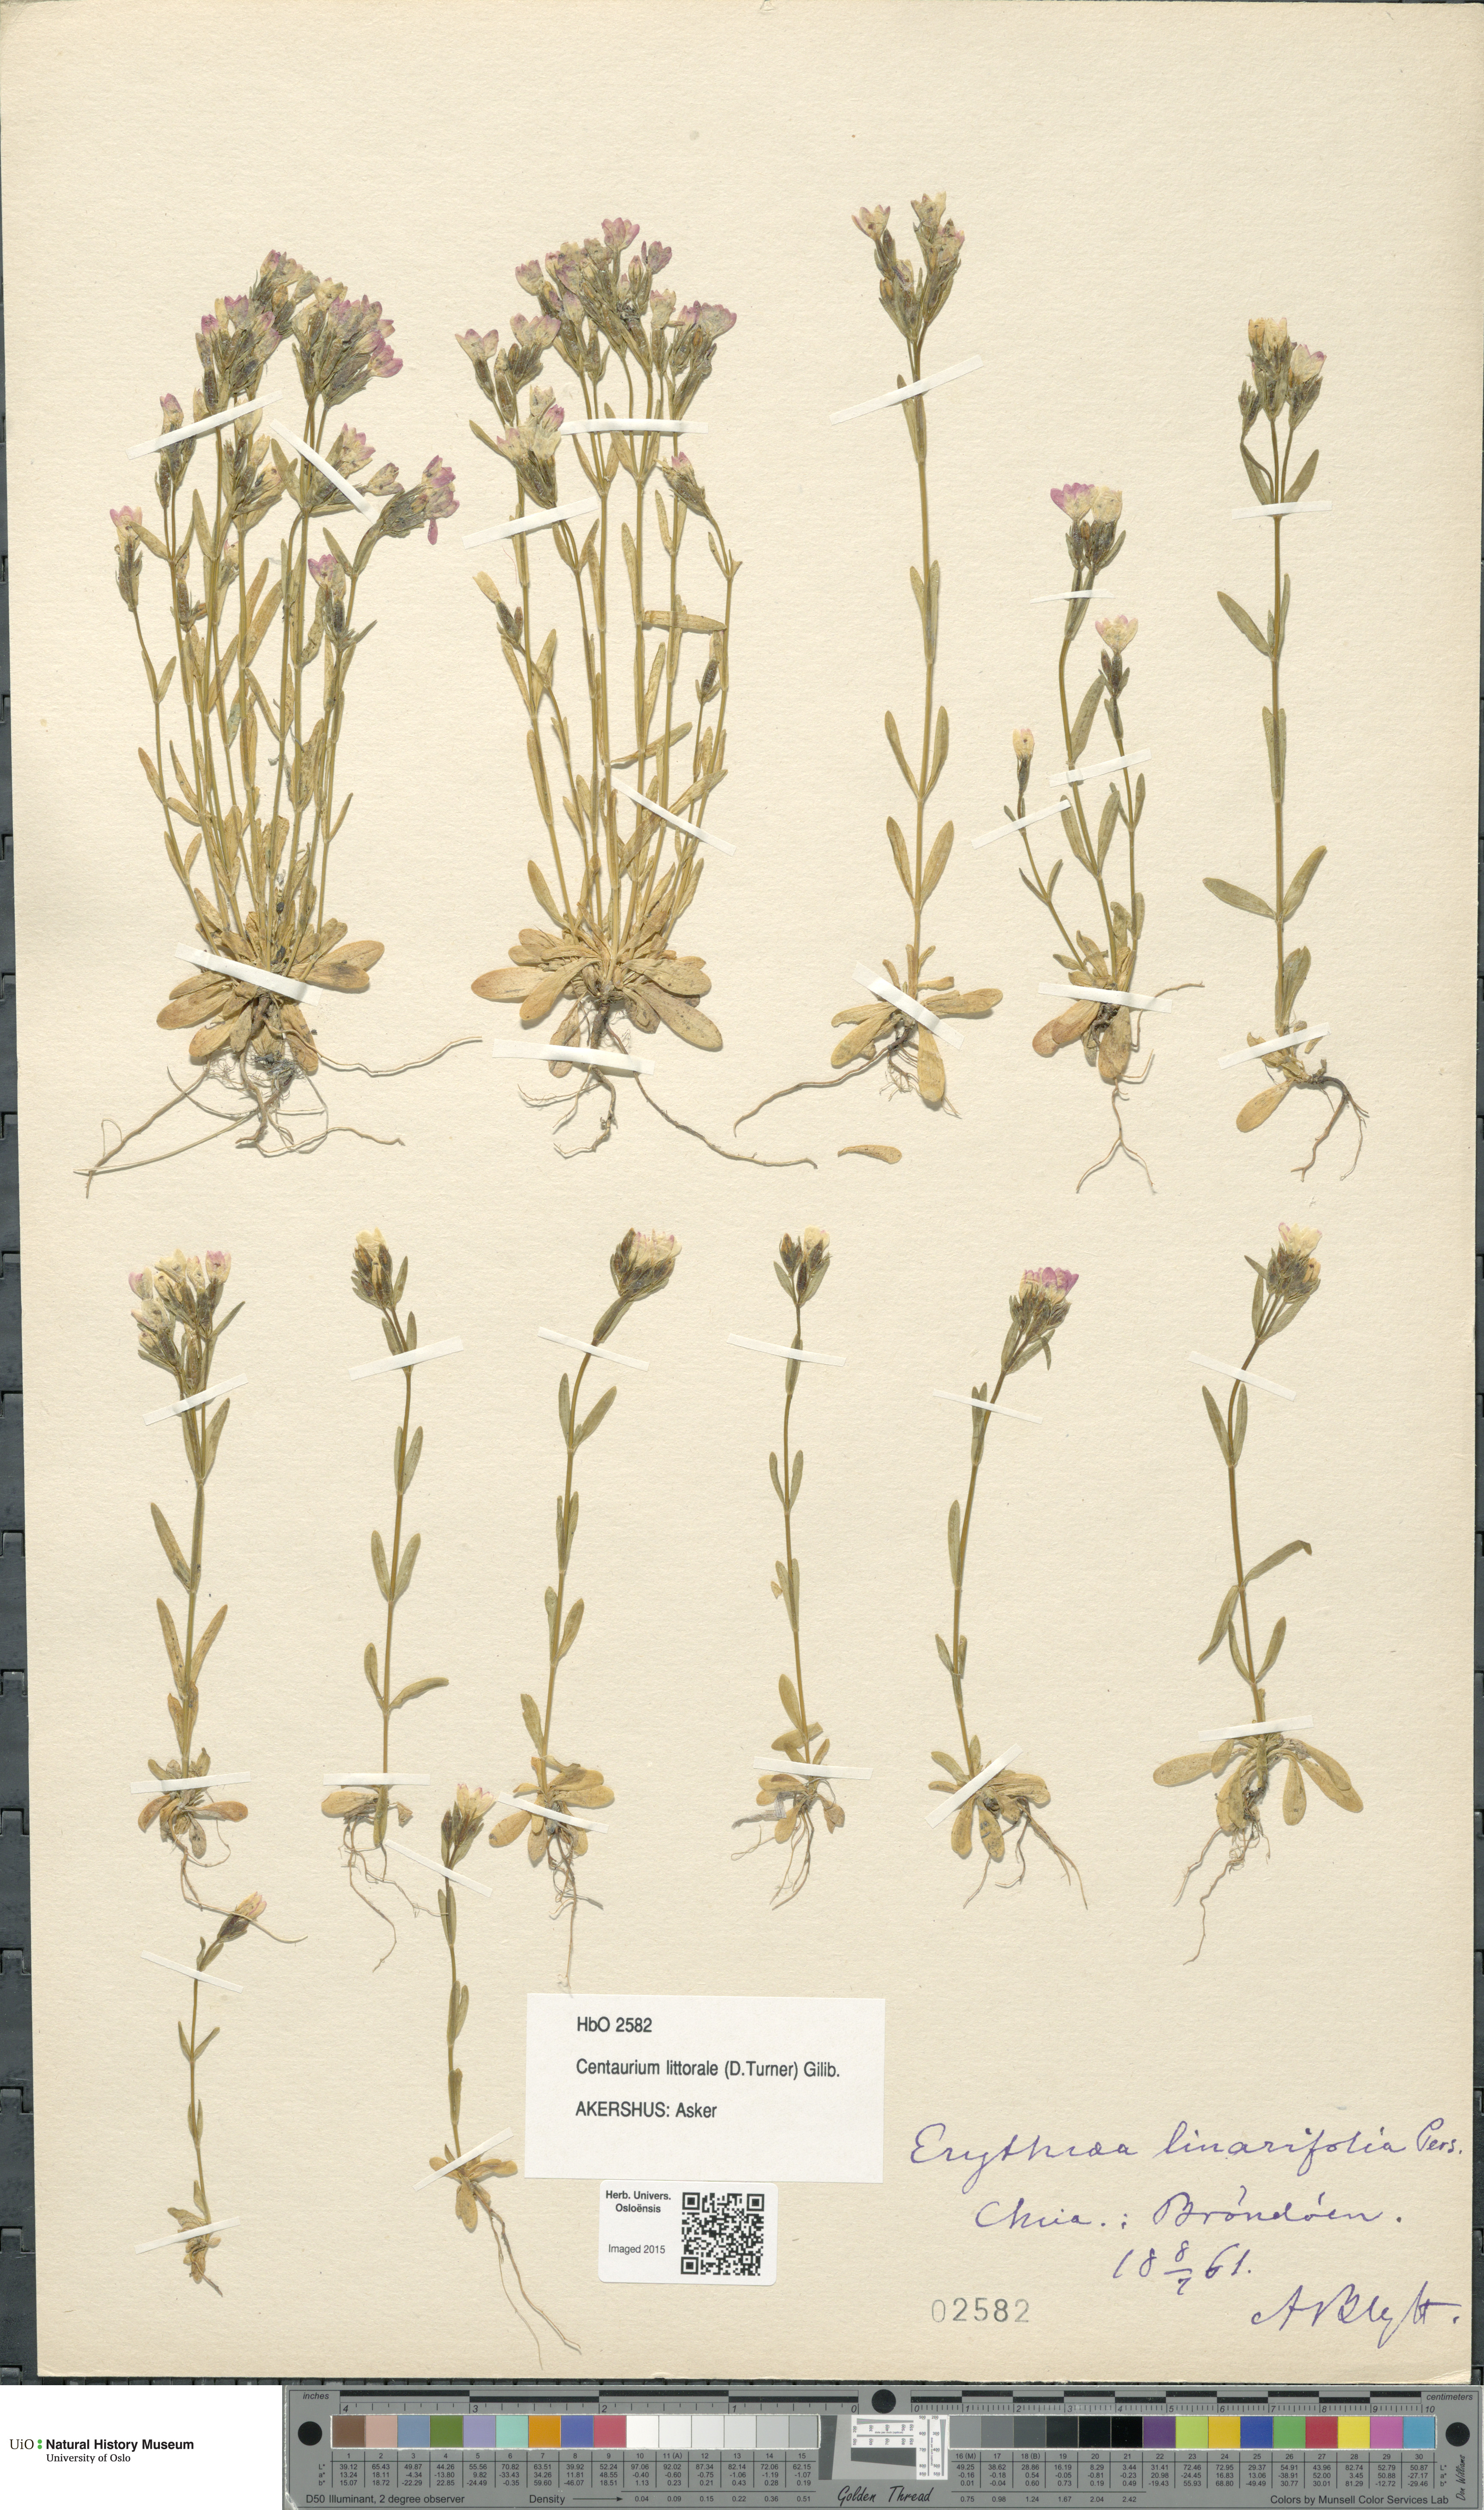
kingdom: Plantae
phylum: Tracheophyta
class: Magnoliopsida
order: Gentianales
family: Gentianaceae
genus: Centaurium
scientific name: Centaurium littorale
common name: Seaside centaury
